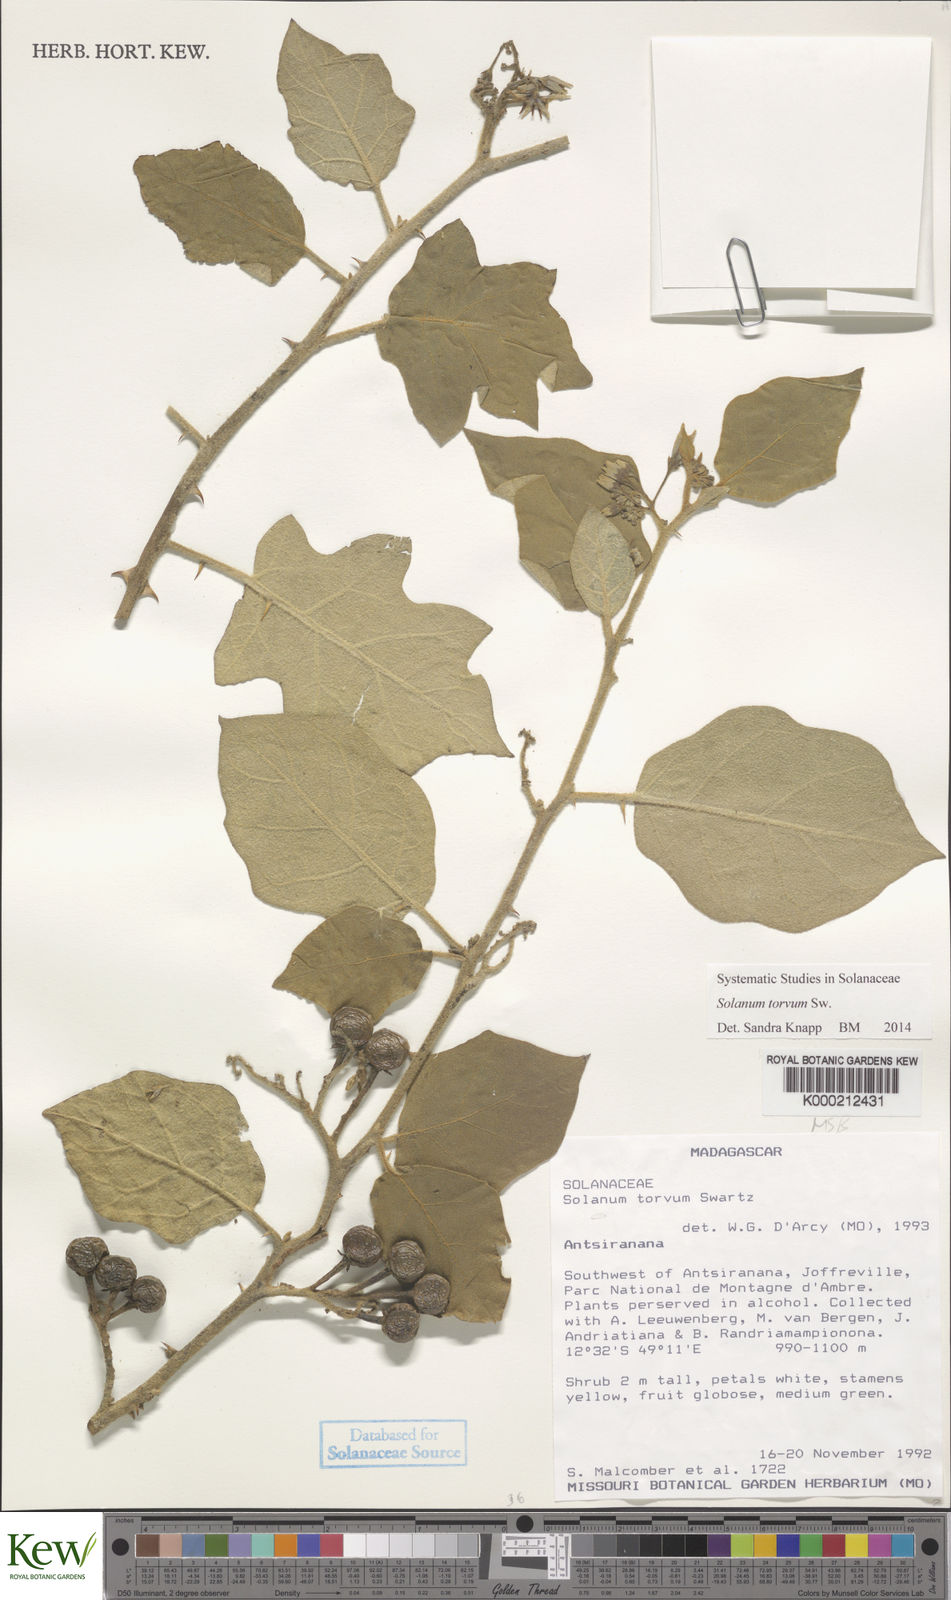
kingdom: Plantae
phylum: Tracheophyta
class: Magnoliopsida
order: Solanales
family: Solanaceae
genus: Solanum
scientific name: Solanum torvum
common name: Turkey berry
